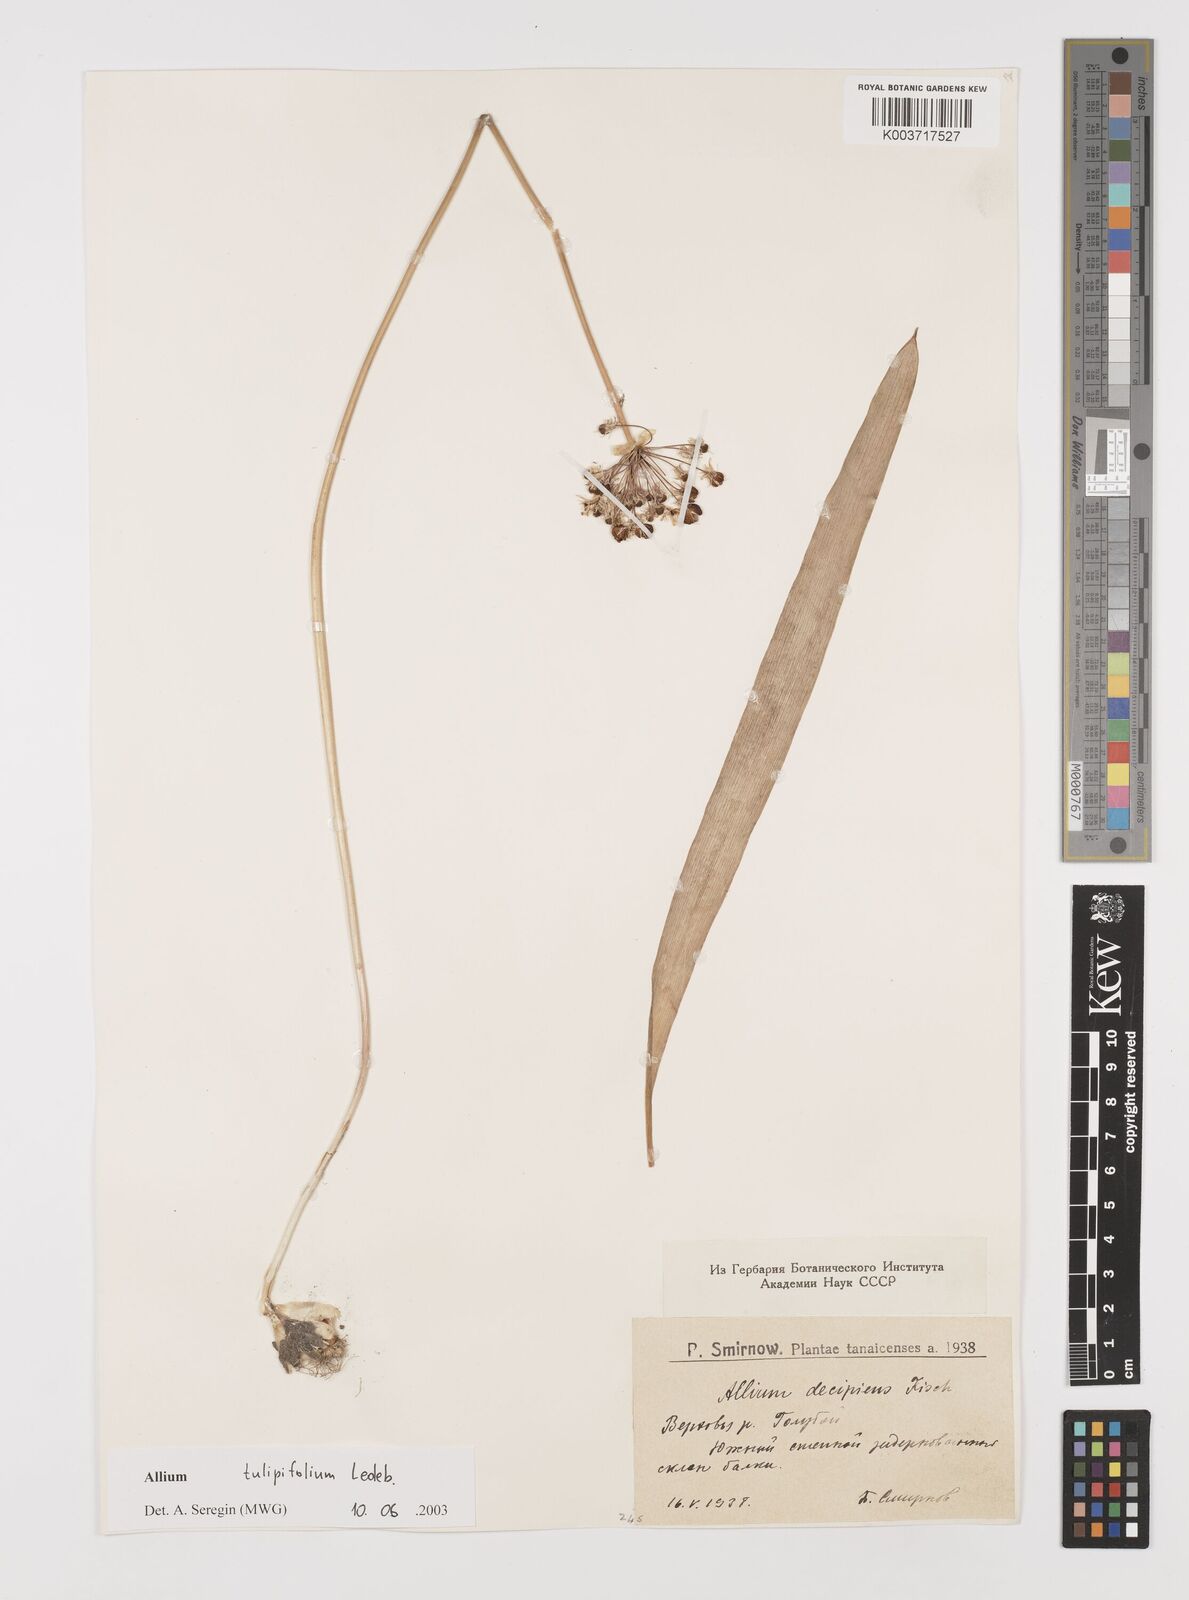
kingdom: Plantae
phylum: Tracheophyta
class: Liliopsida
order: Asparagales
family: Amaryllidaceae
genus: Allium
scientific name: Allium tulipifolium
